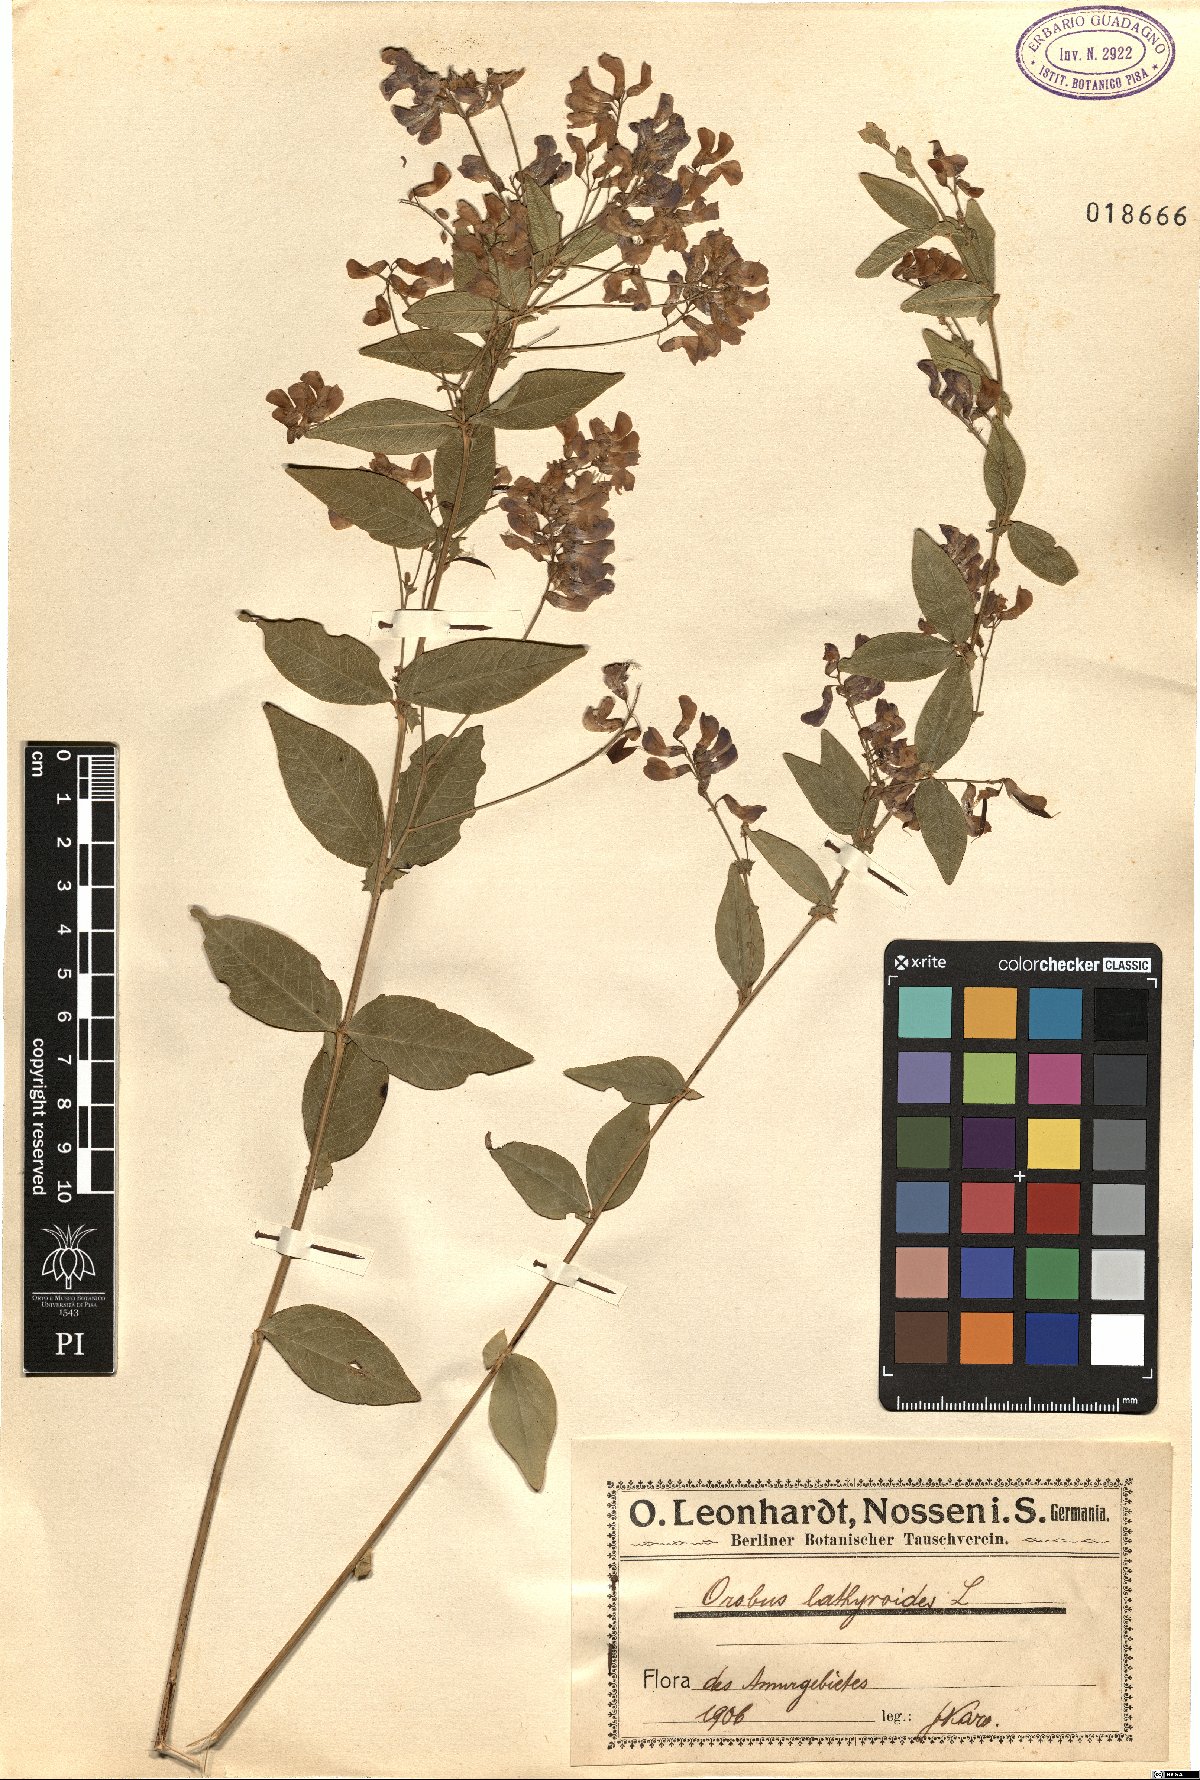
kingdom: Plantae
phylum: Tracheophyta
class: Magnoliopsida
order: Fabales
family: Fabaceae
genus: Vicia
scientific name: Vicia unijuga
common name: Two-leaf vetch
